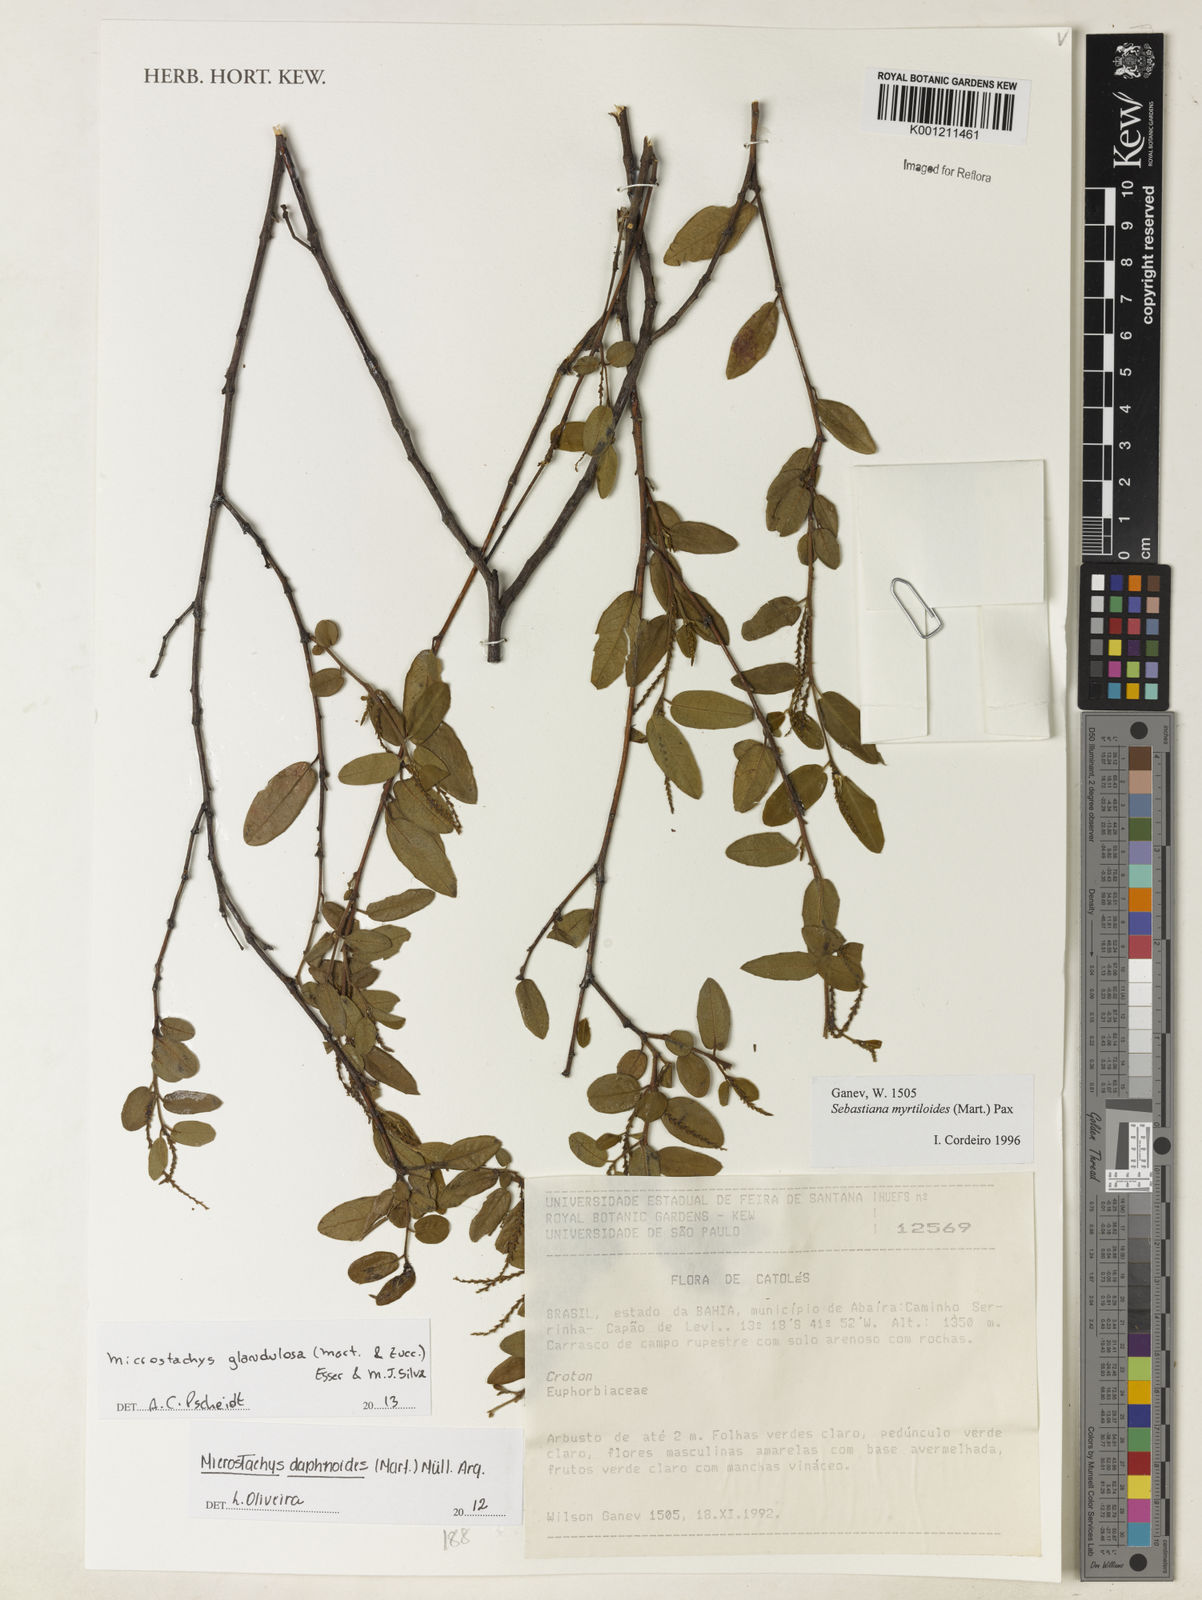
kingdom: Plantae
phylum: Tracheophyta
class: Magnoliopsida
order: Malpighiales
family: Euphorbiaceae
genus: Microstachys
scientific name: Microstachys glandulosa
